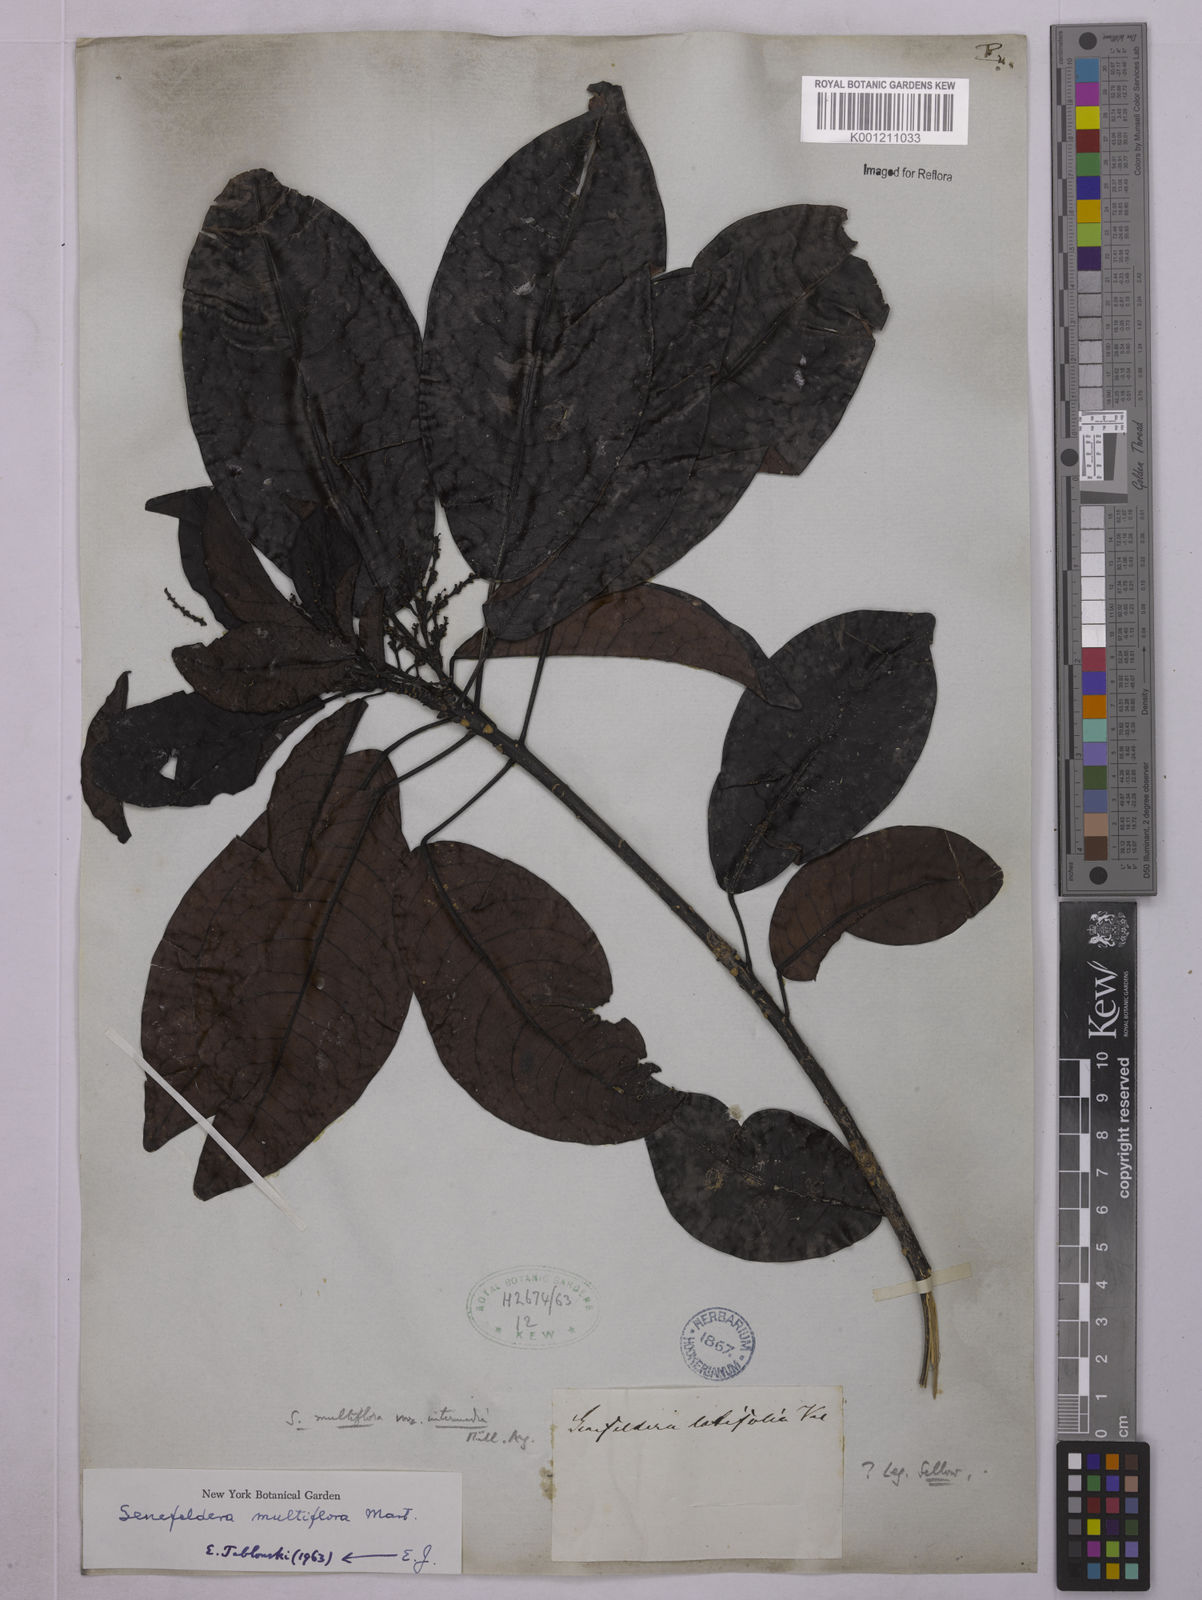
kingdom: Plantae
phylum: Tracheophyta
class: Magnoliopsida
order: Malpighiales
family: Euphorbiaceae
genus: Senefeldera
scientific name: Senefeldera verticillata
